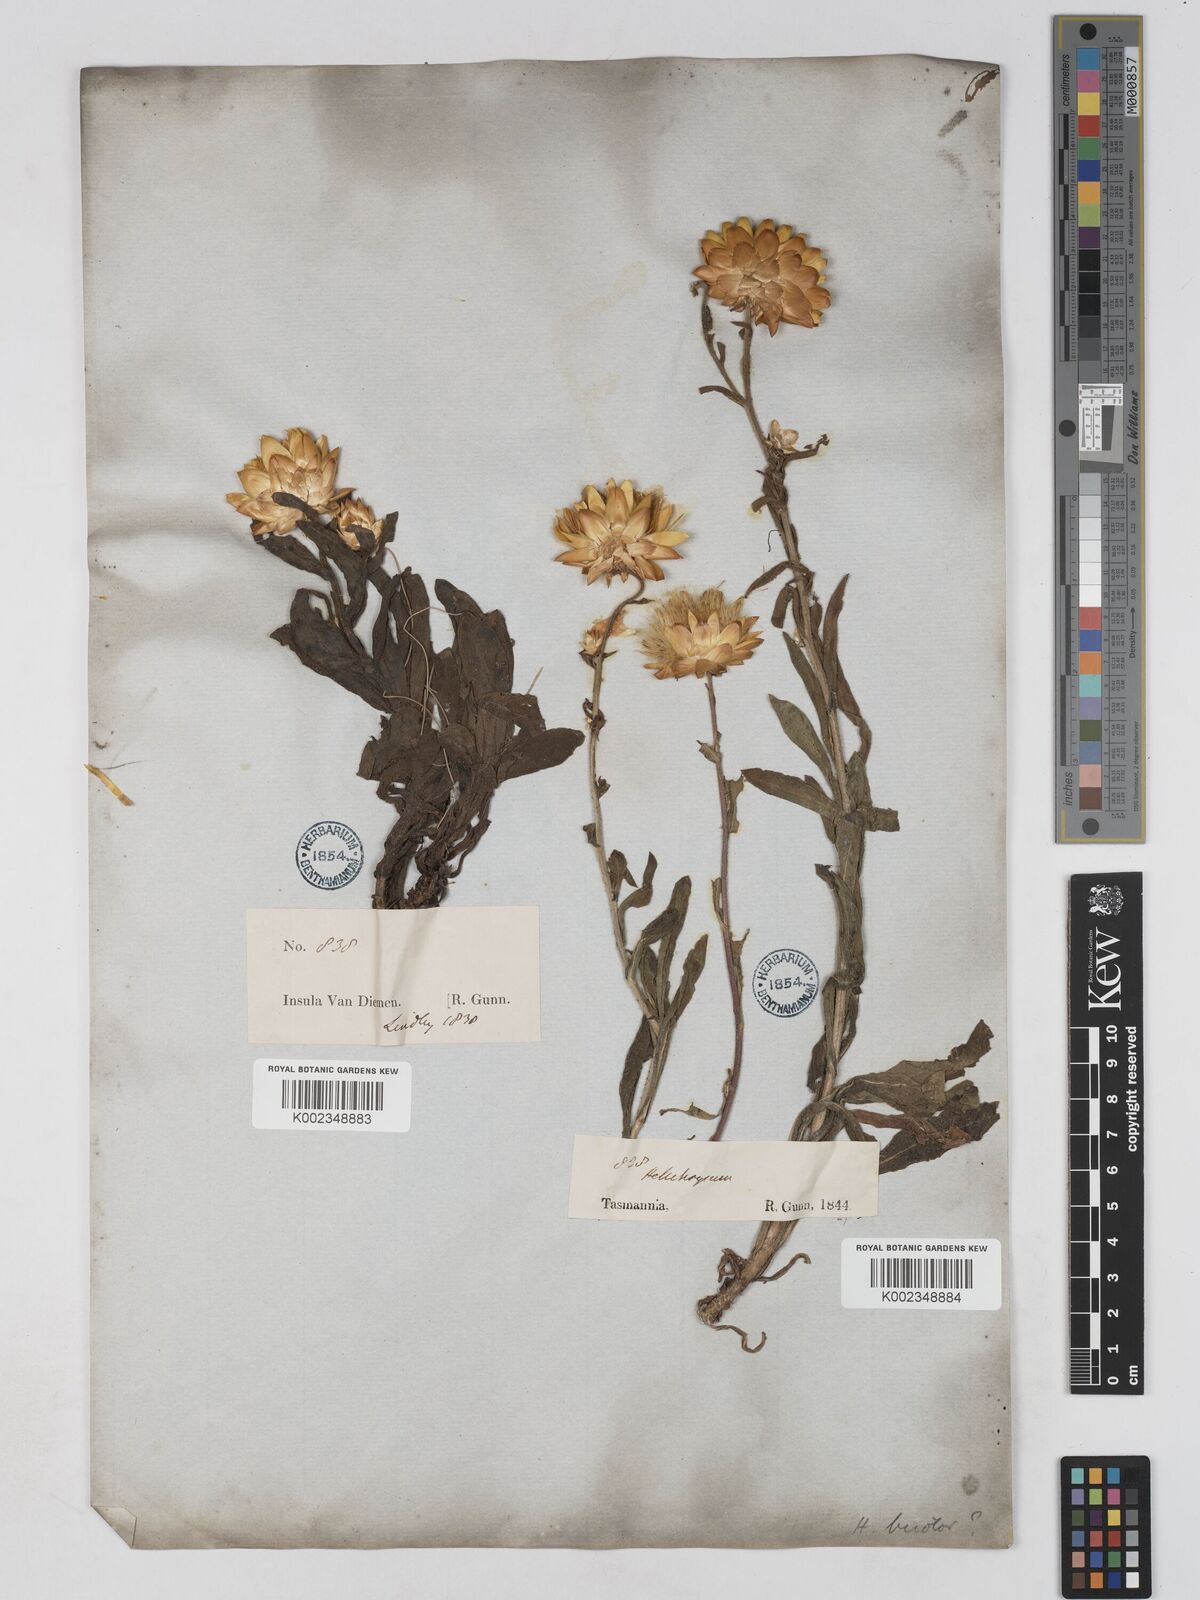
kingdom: Plantae
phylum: Tracheophyta
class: Magnoliopsida
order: Asterales
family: Asteraceae
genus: Xerochrysum
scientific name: Xerochrysum bracteatum
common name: Bracted strawflower
